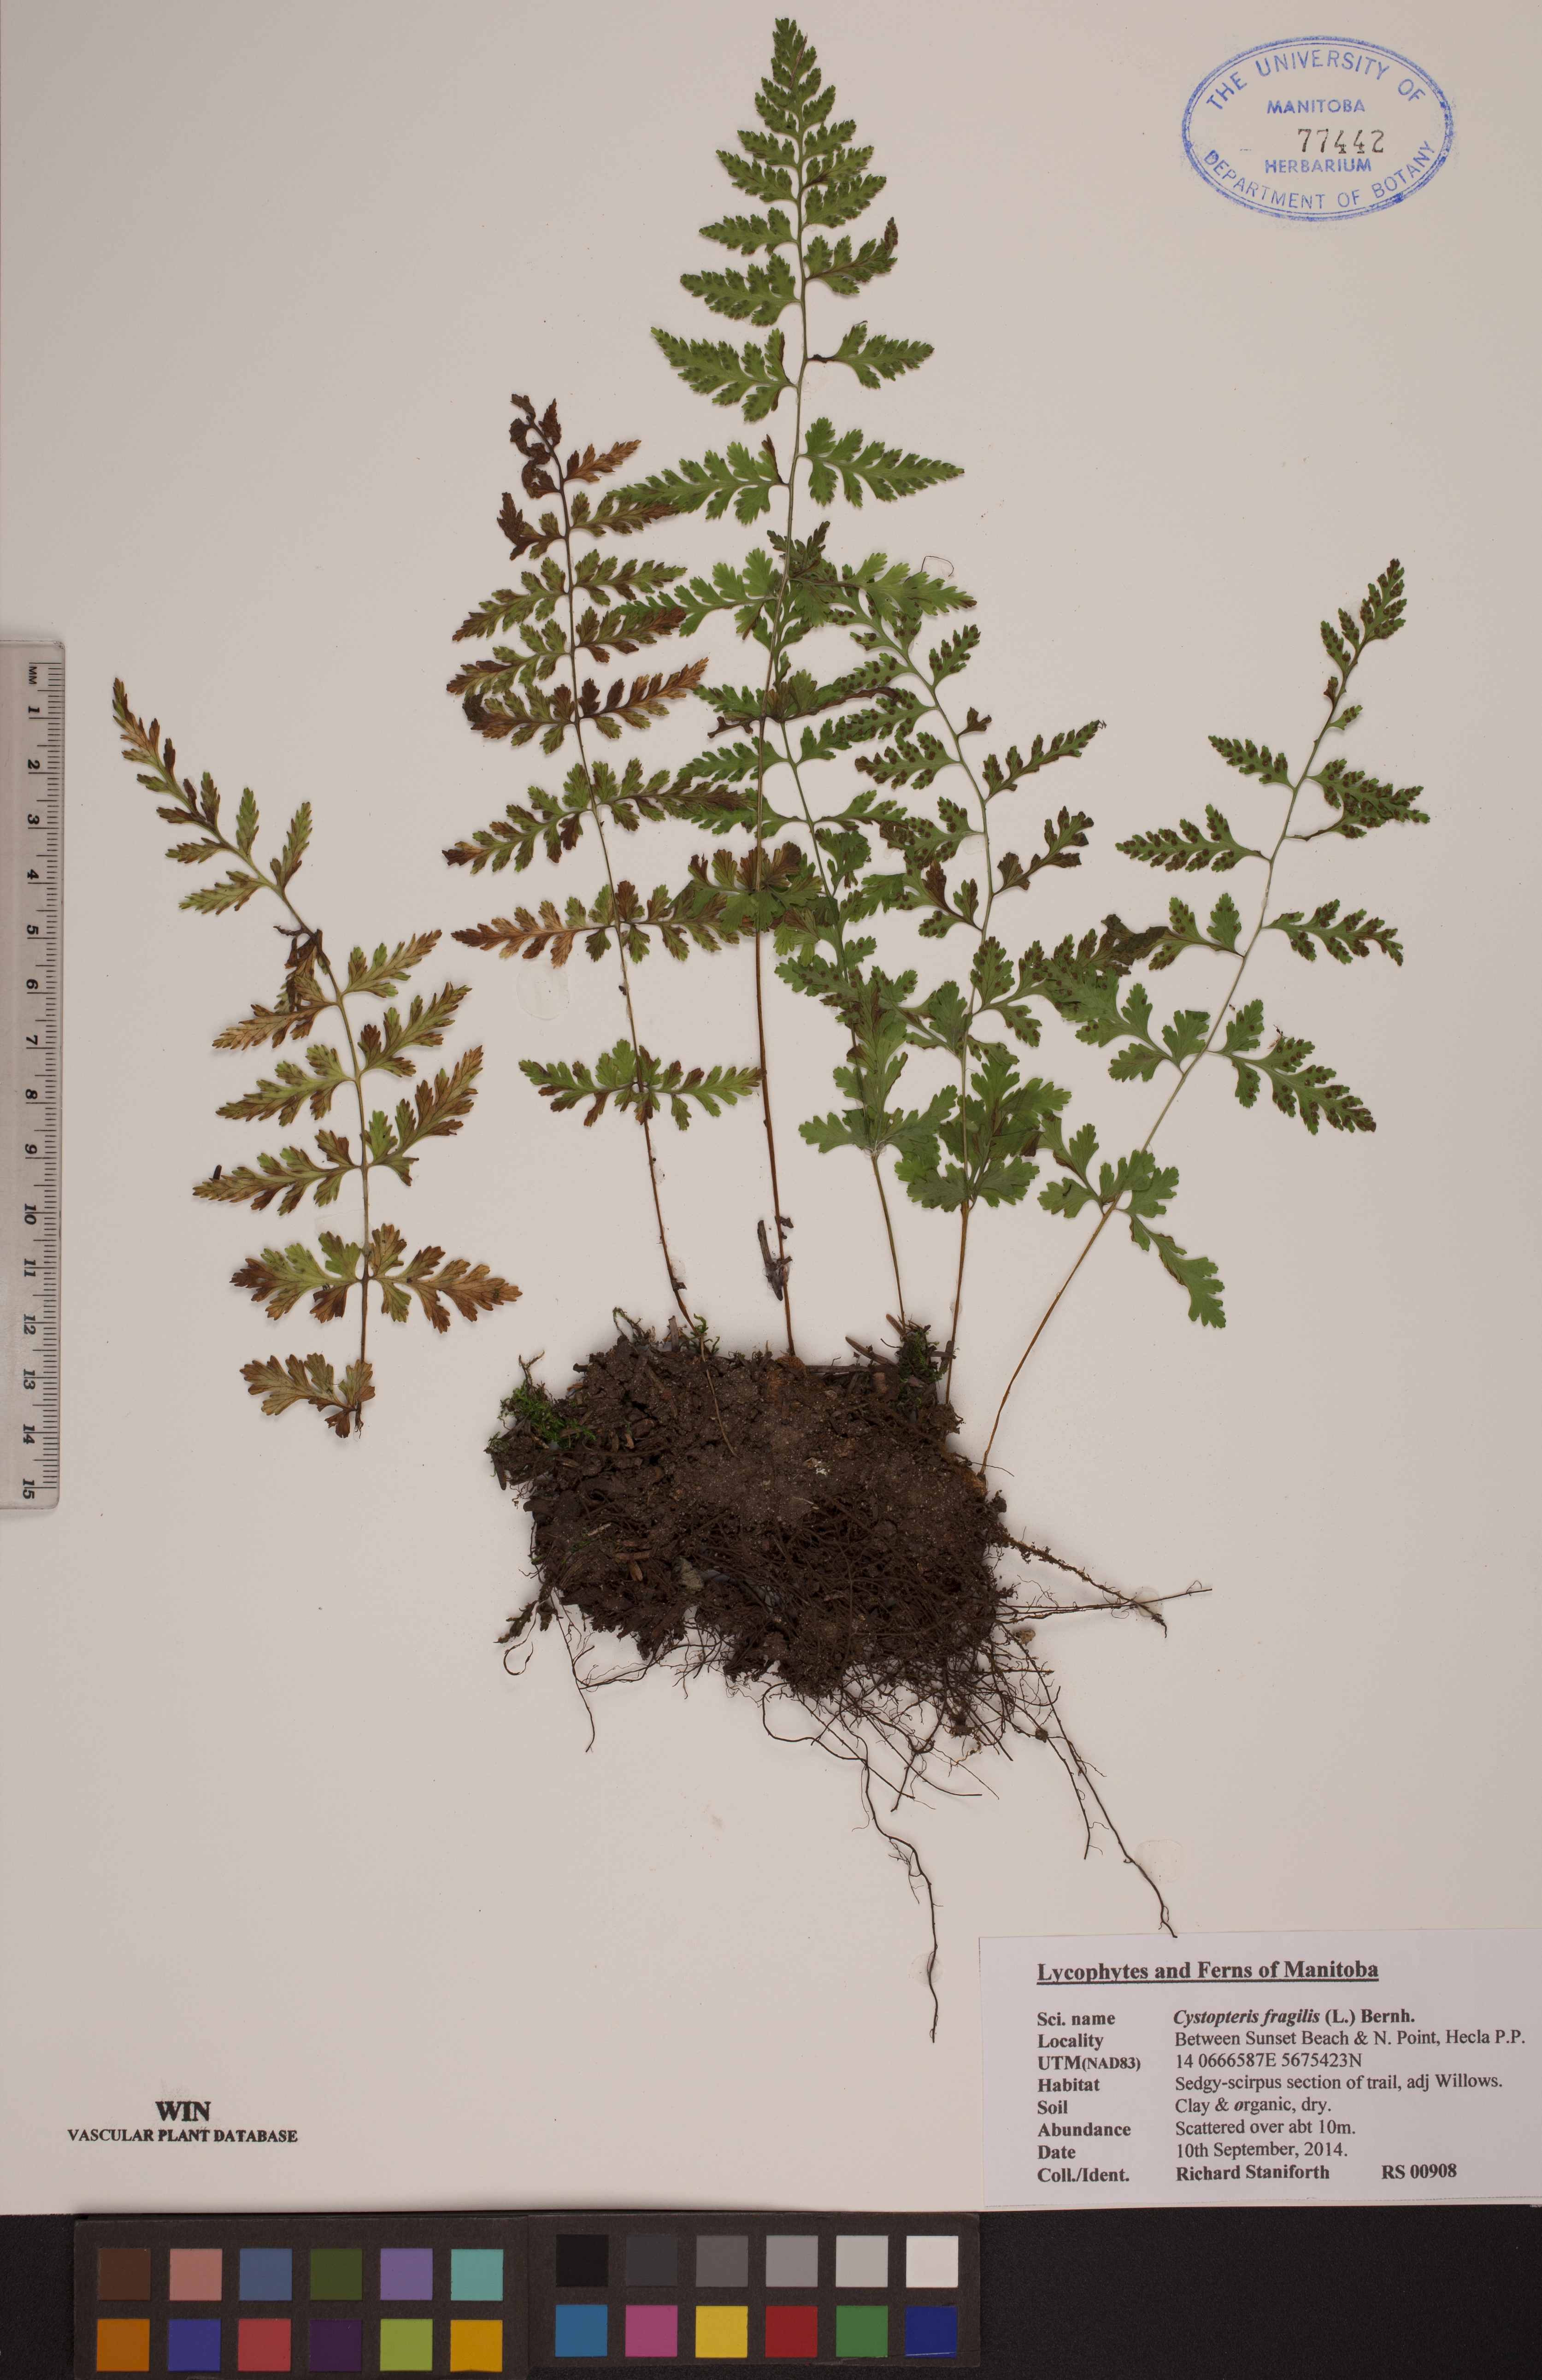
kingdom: Plantae
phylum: Tracheophyta
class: Polypodiopsida
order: Polypodiales
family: Cystopteridaceae
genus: Cystopteris
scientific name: Cystopteris fragilis
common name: Brittle bladder fern
